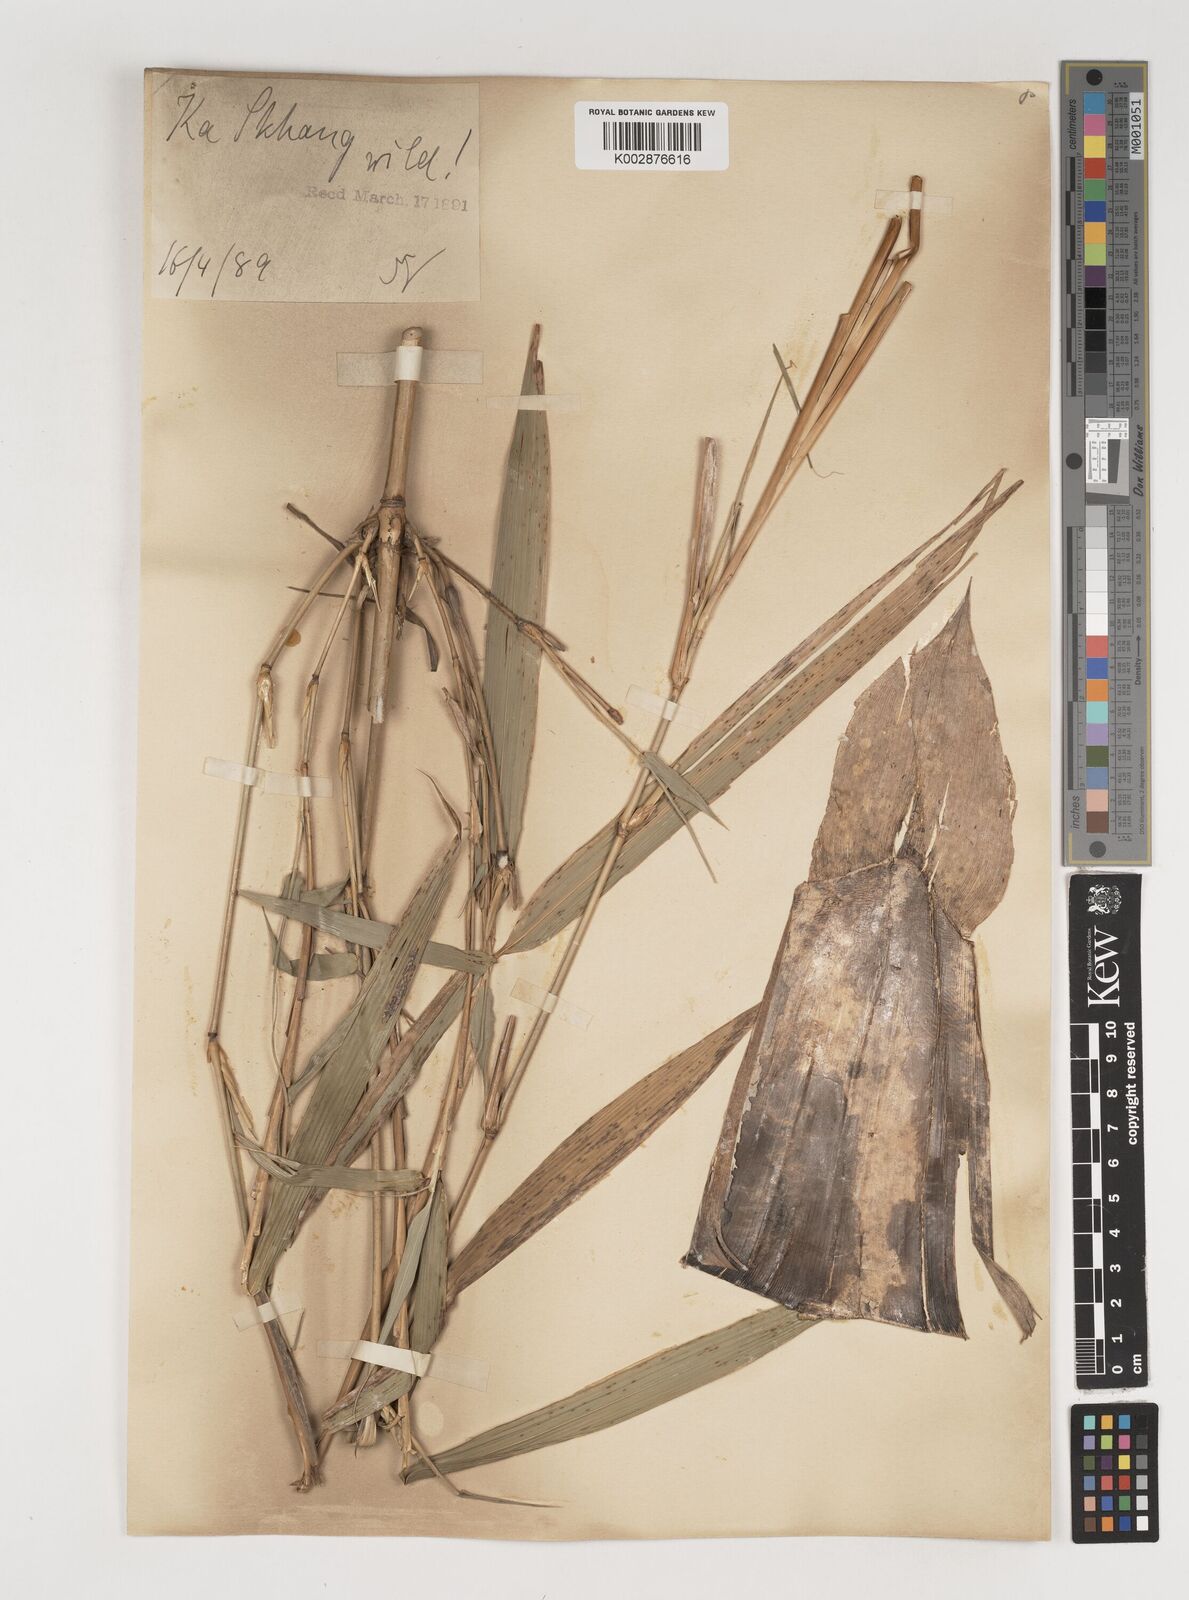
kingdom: Plantae
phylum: Tracheophyta
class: Liliopsida
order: Poales
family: Poaceae
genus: Bambusa
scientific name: Bambusa nutans
